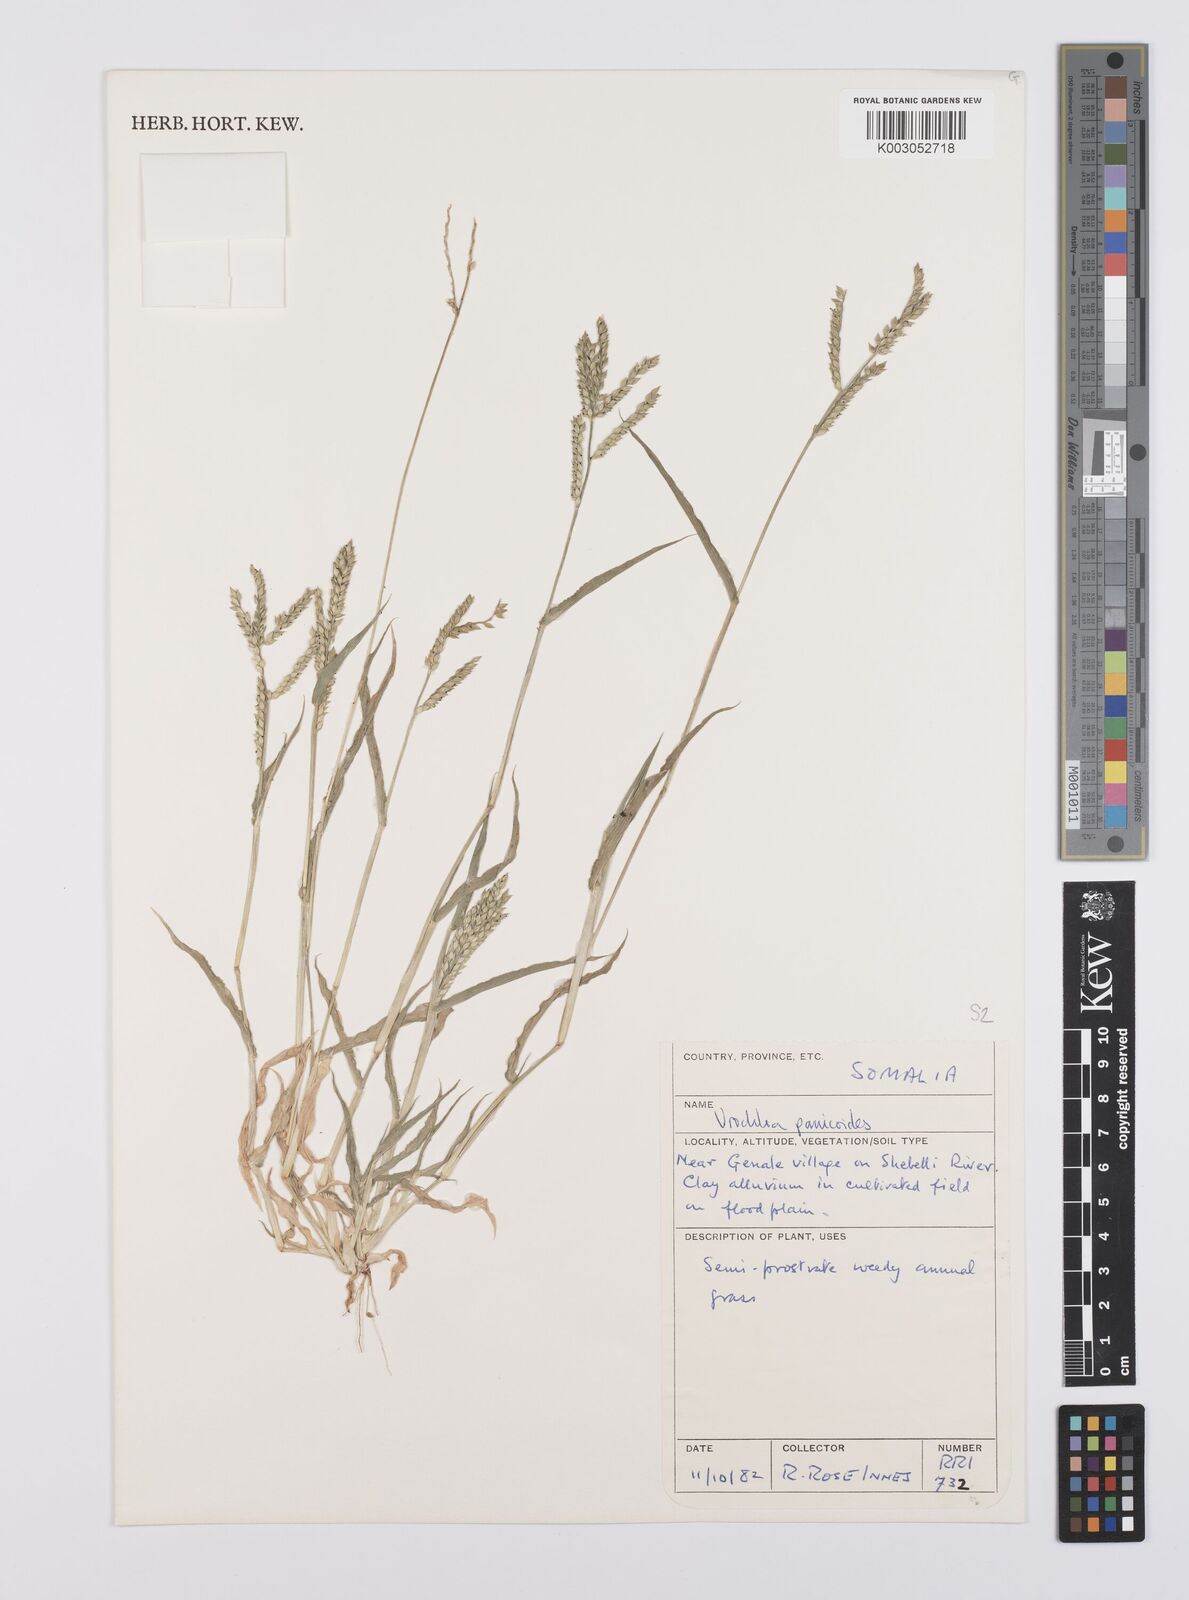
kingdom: Plantae
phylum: Tracheophyta
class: Liliopsida
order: Poales
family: Poaceae
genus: Urochloa
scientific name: Urochloa panicoides
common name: Sharp-flowered signal-grass
